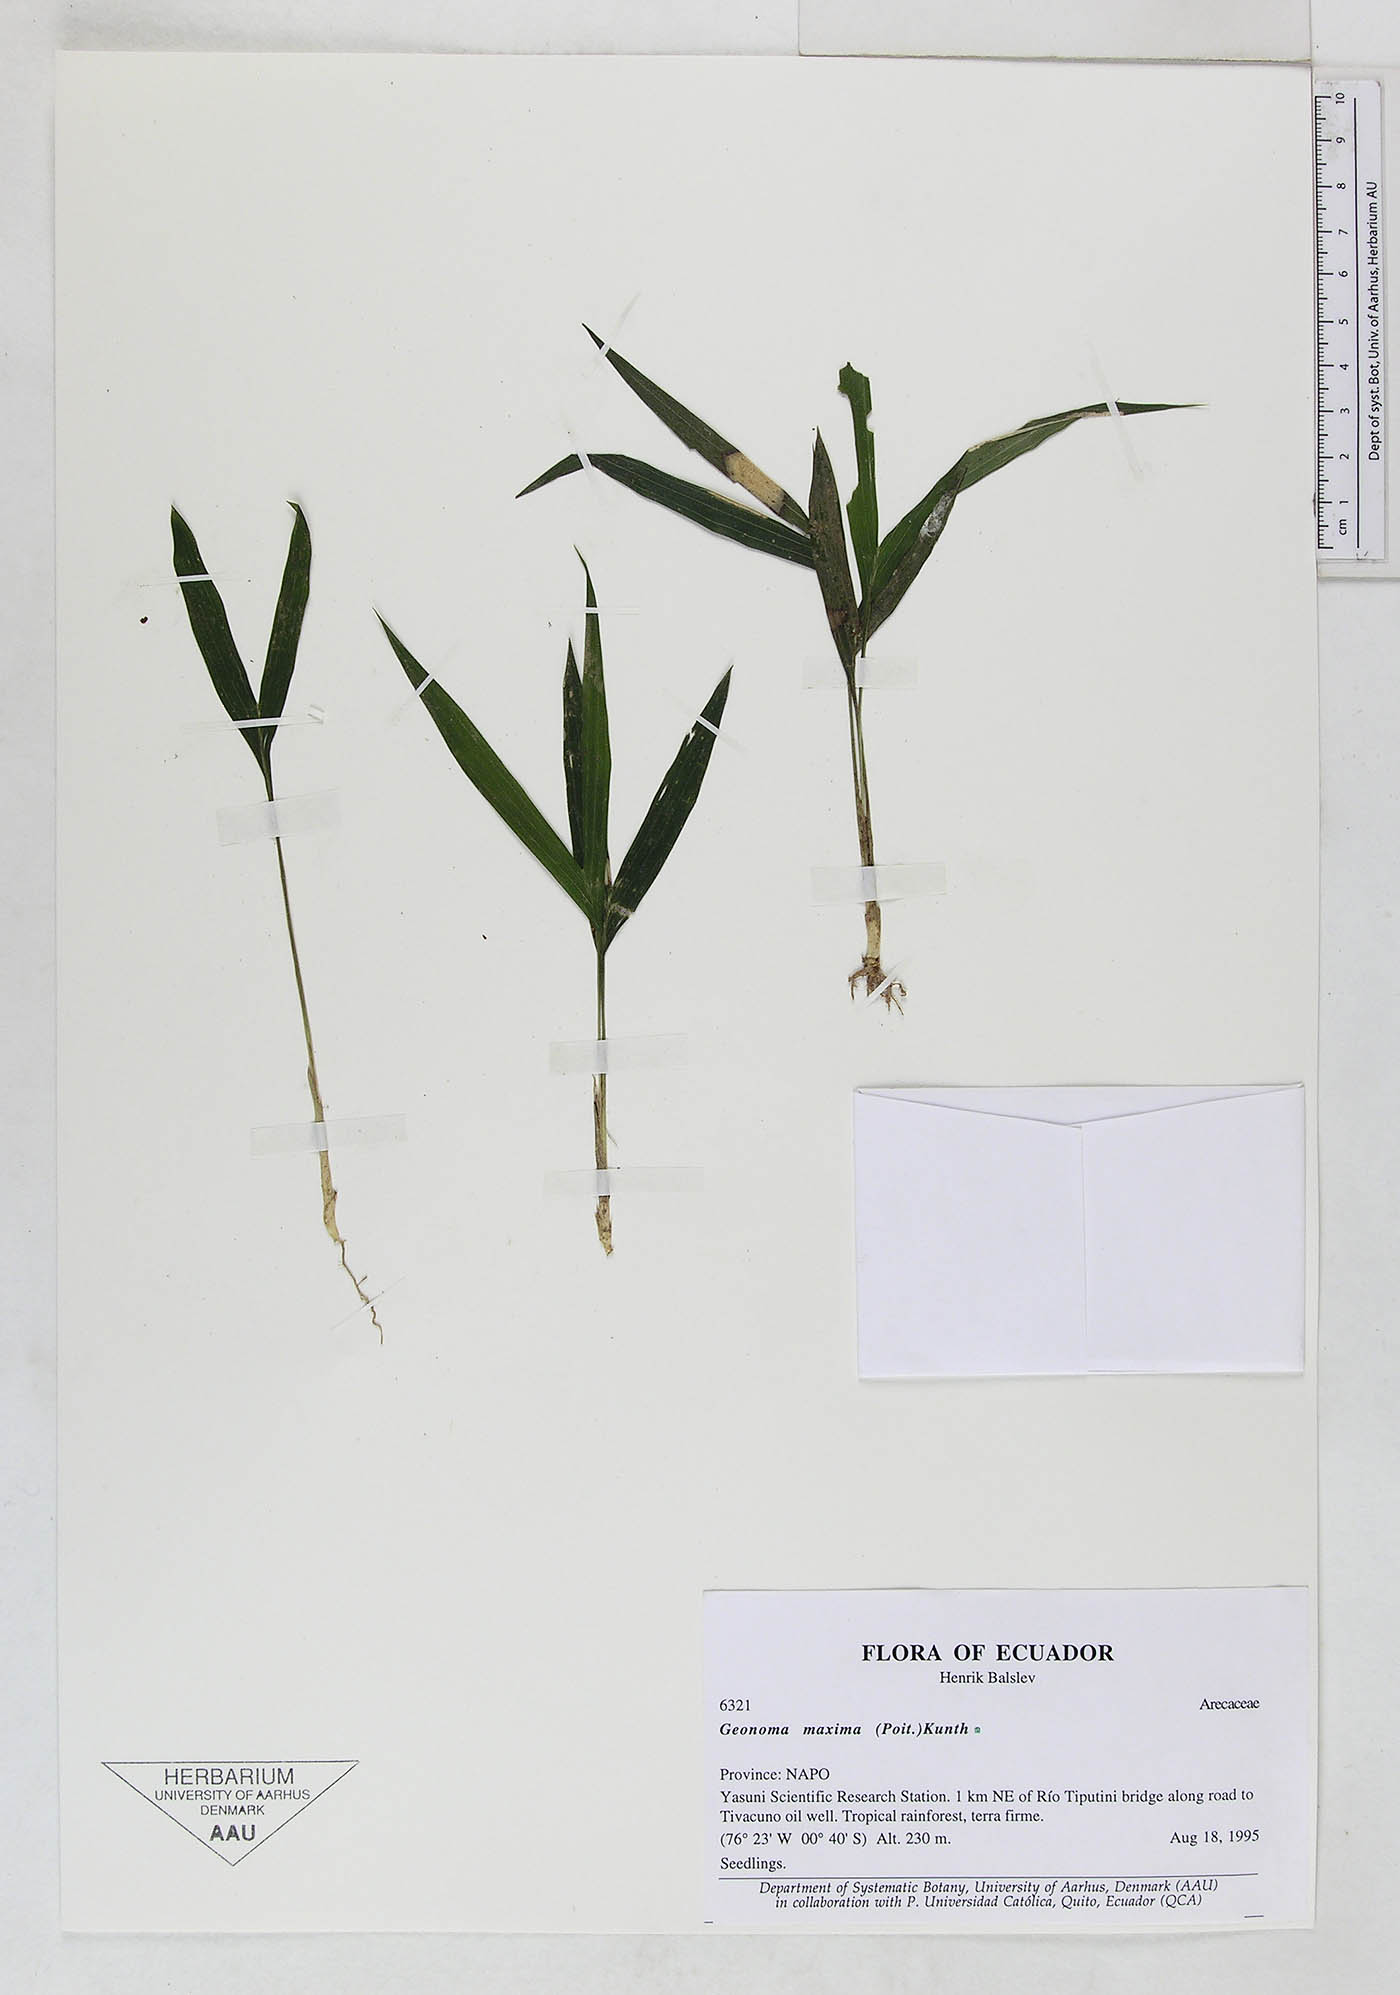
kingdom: Plantae
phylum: Tracheophyta
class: Liliopsida
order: Arecales
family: Arecaceae
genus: Geonoma
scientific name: Geonoma maxima
